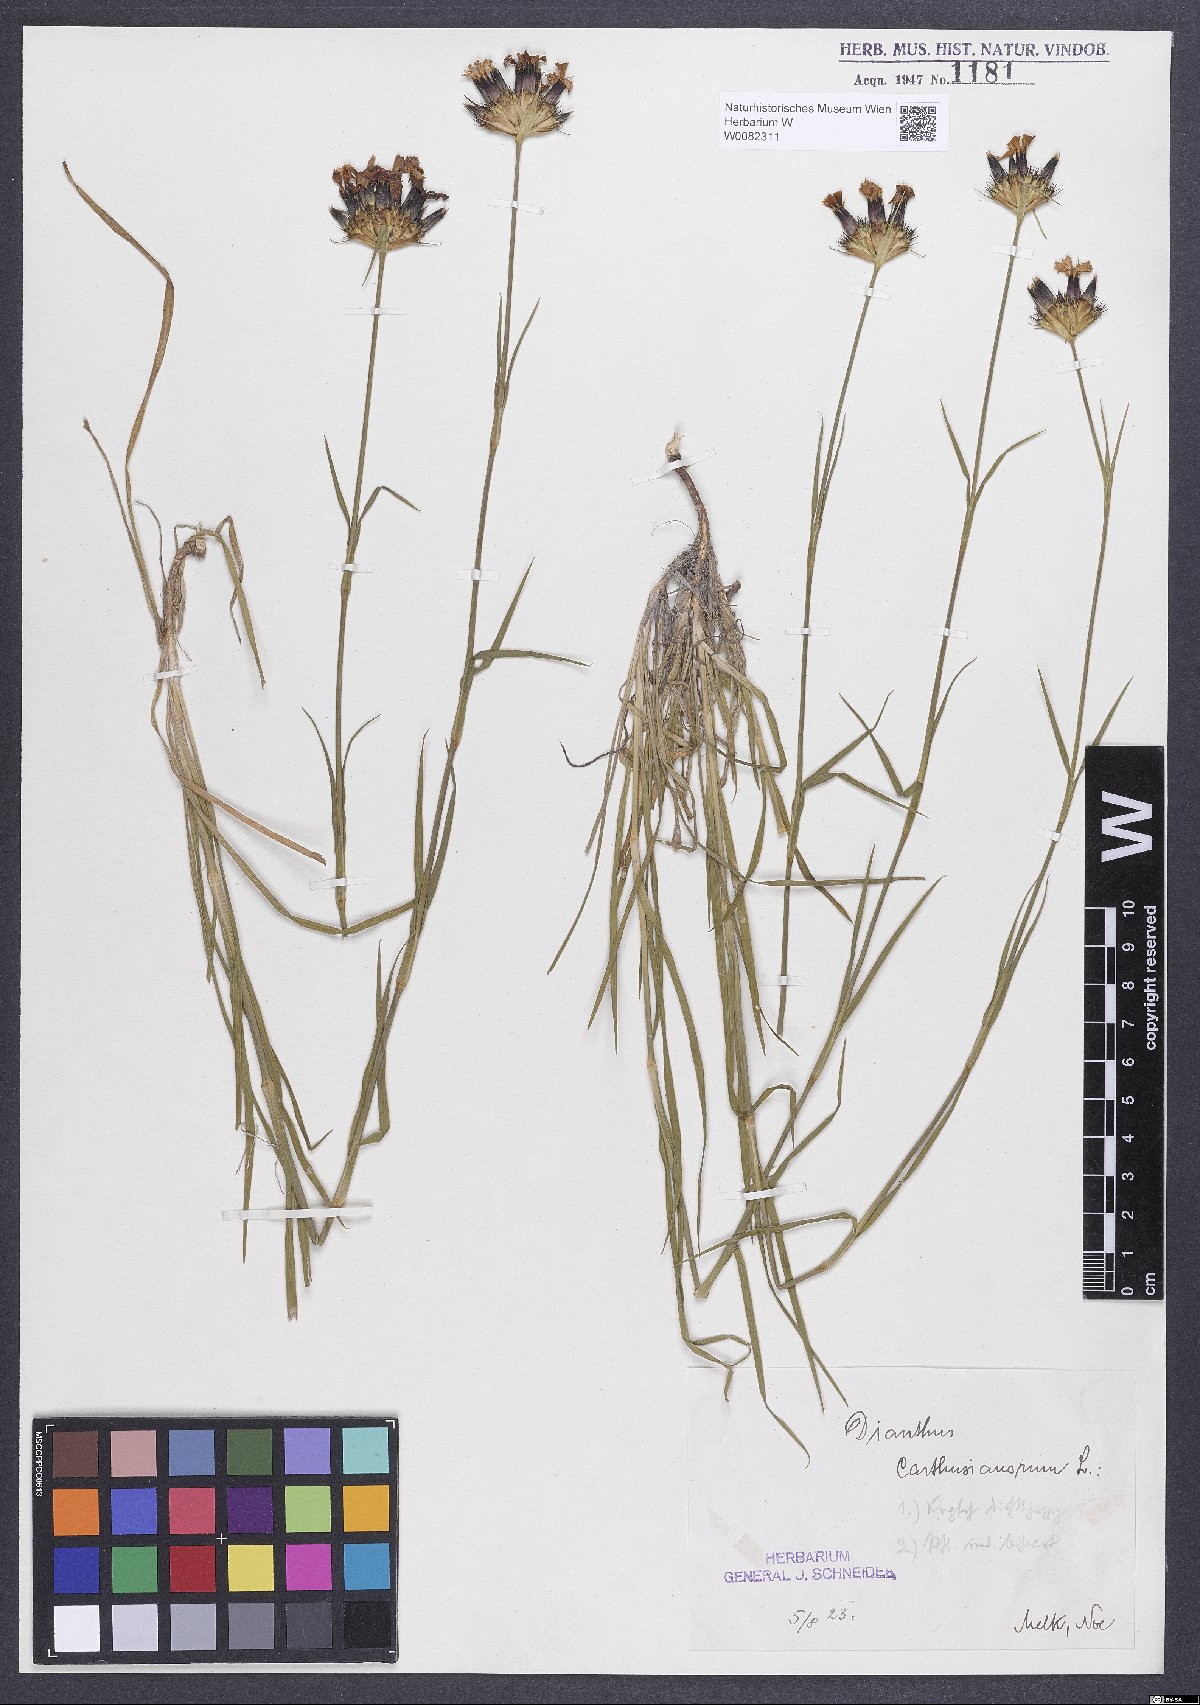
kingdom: Plantae
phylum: Tracheophyta
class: Magnoliopsida
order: Caryophyllales
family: Caryophyllaceae
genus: Dianthus
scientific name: Dianthus carthusianorum
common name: Carthusian pink
